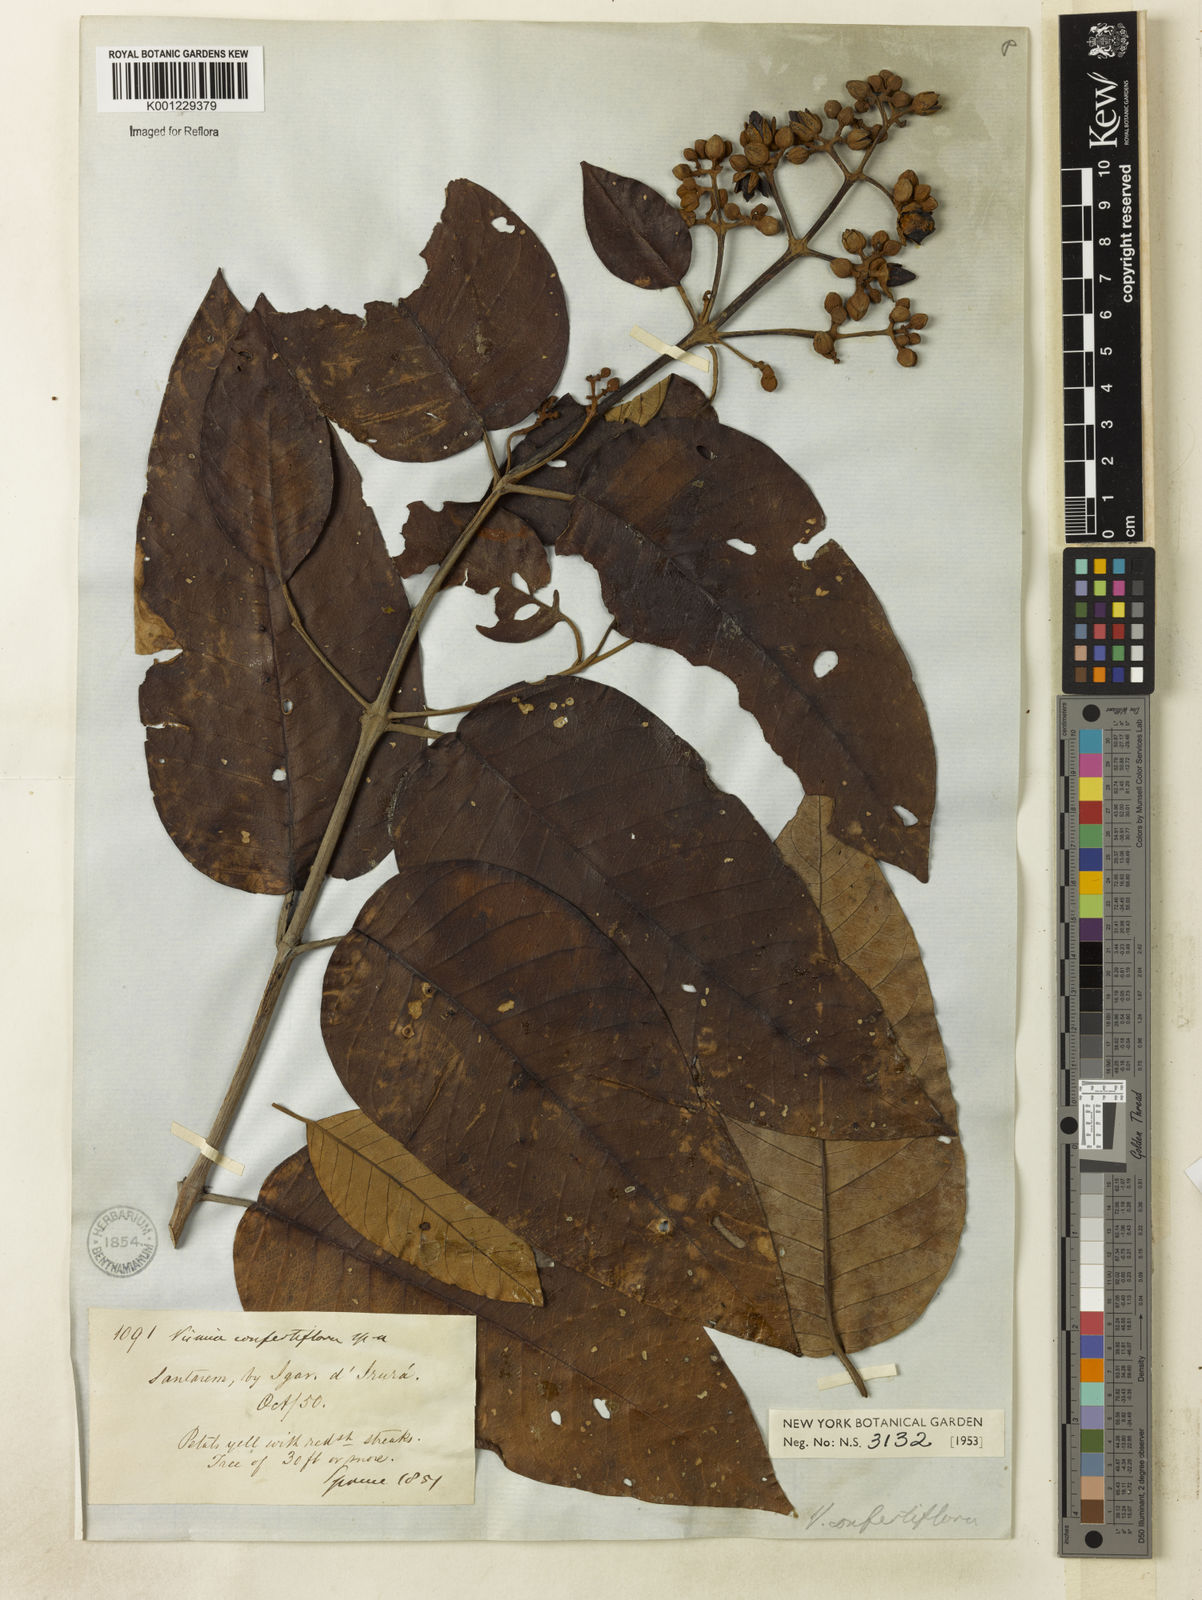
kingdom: Plantae
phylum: Tracheophyta
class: Magnoliopsida
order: Malpighiales
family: Hypericaceae
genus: Vismia
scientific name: Vismia baccifera
